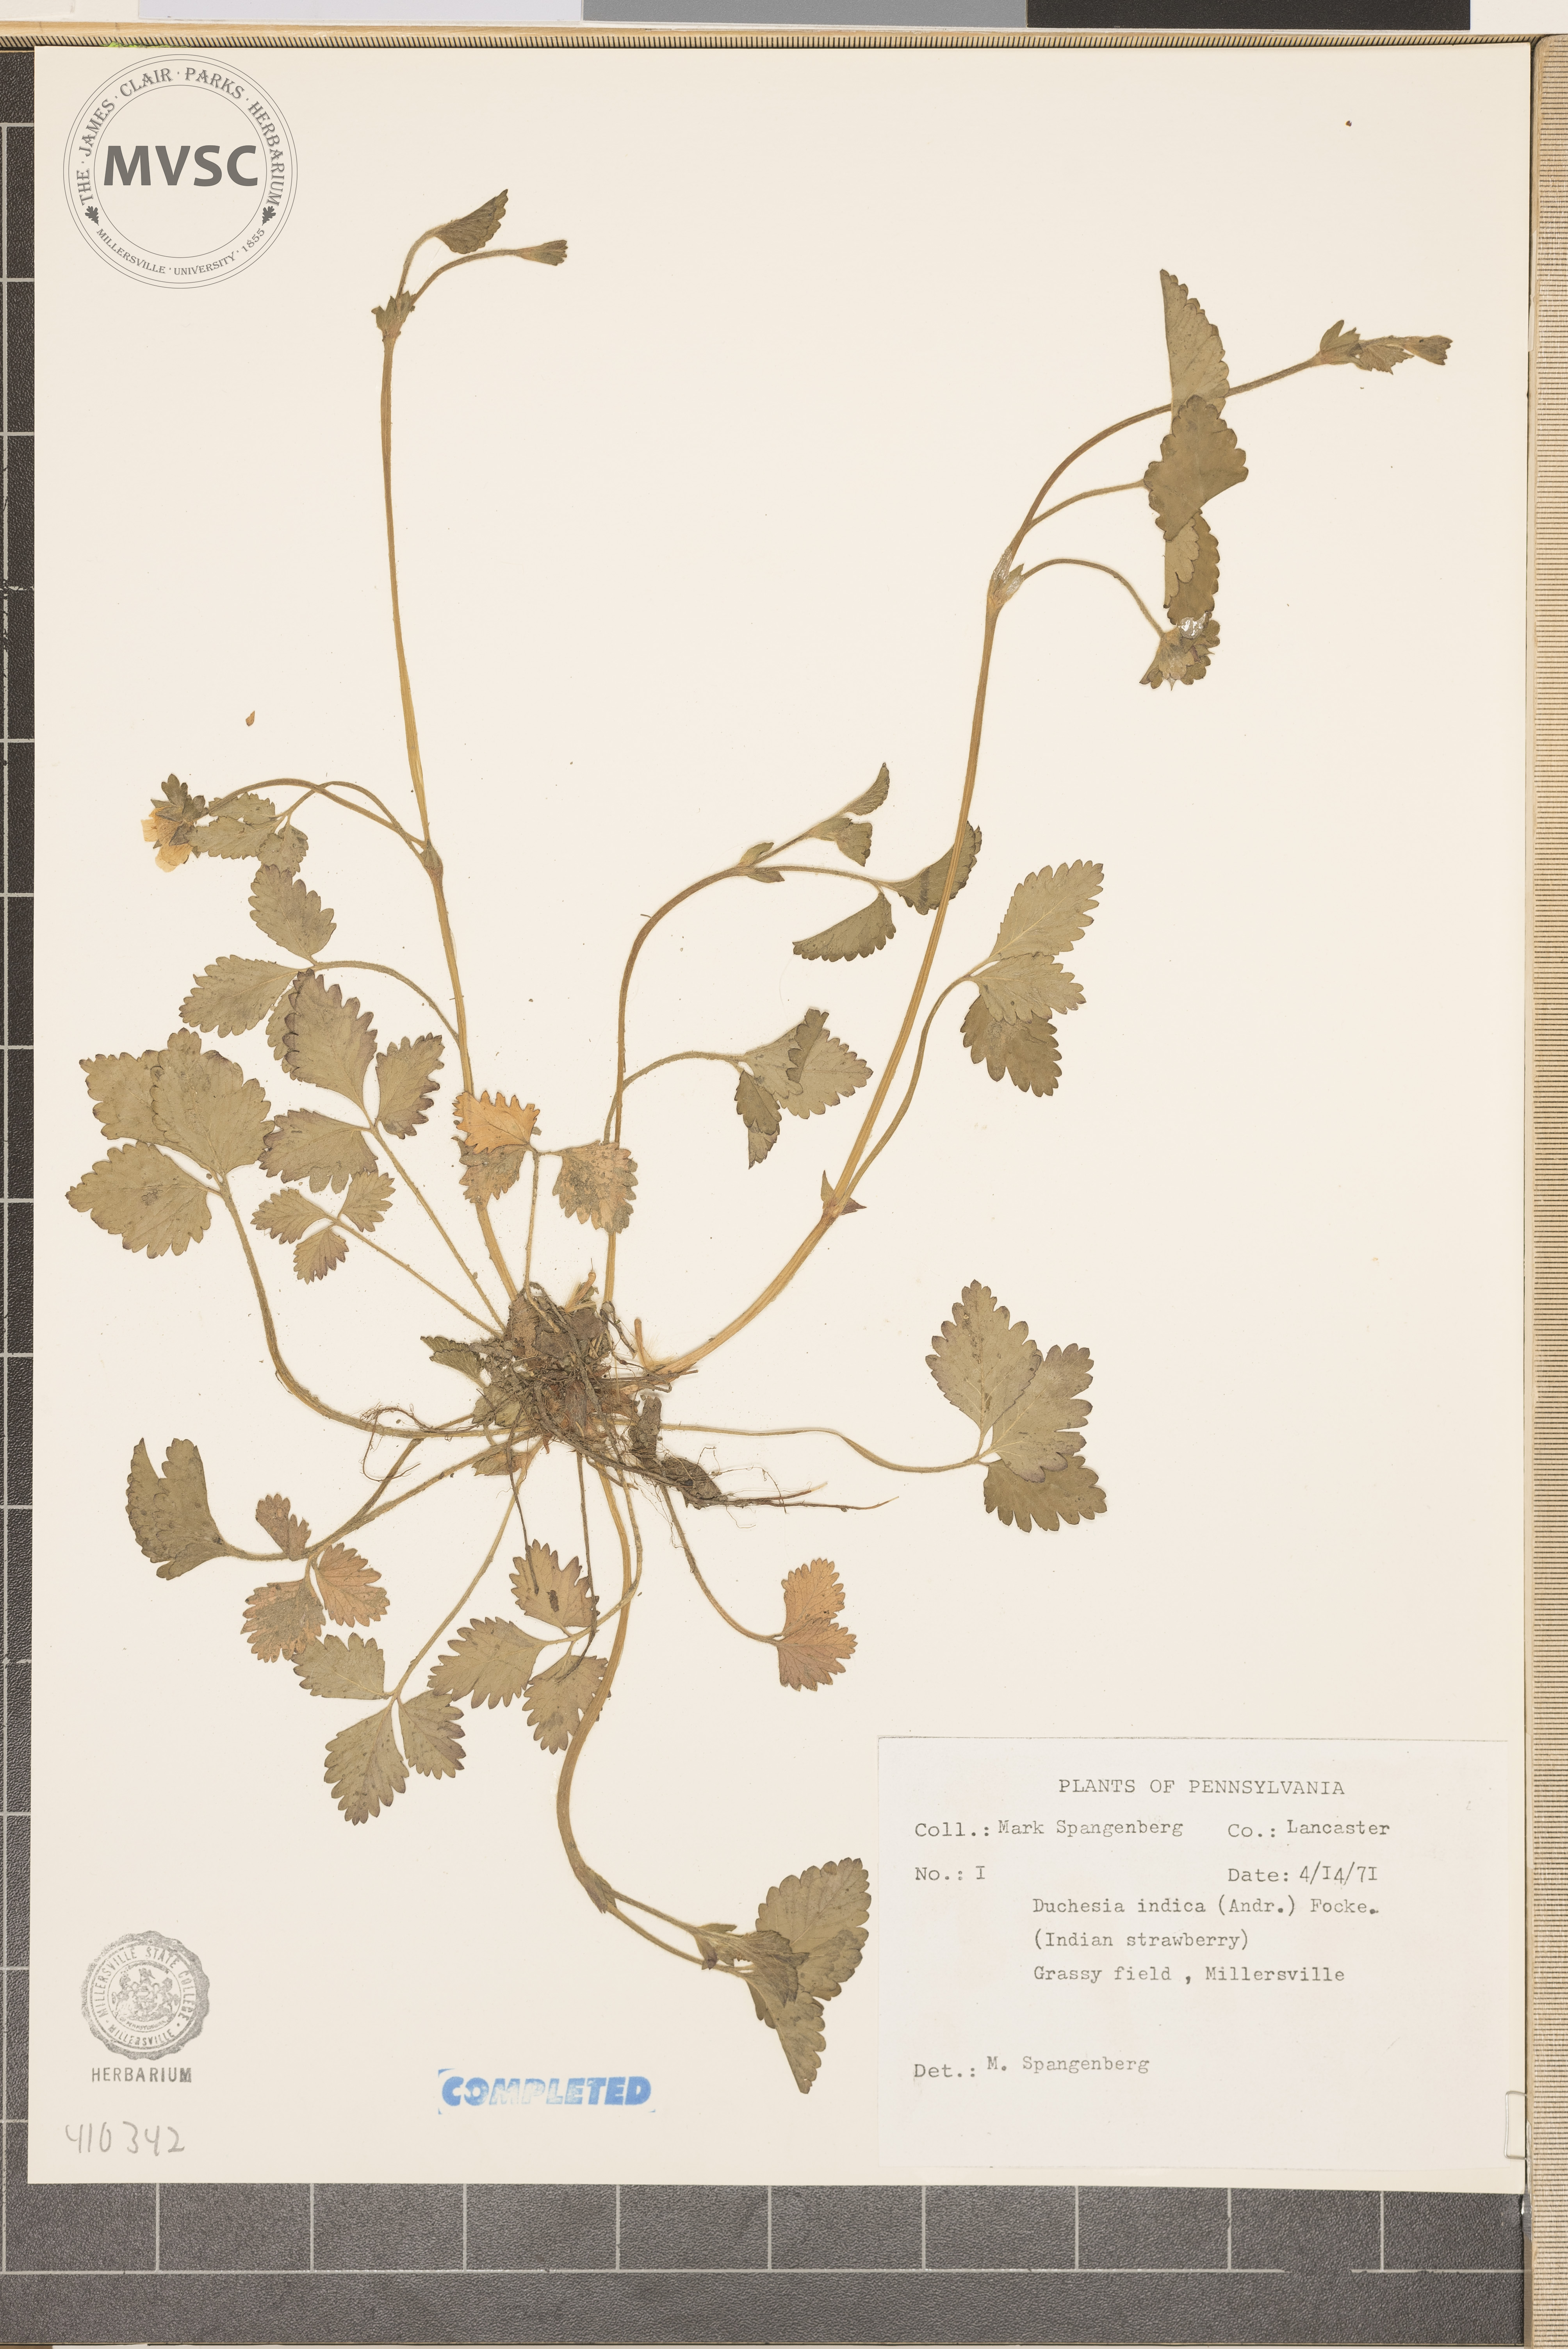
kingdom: Plantae
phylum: Tracheophyta
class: Magnoliopsida
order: Rosales
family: Rosaceae
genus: Potentilla
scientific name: Potentilla indica
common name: Yellow-flowered strawberry
